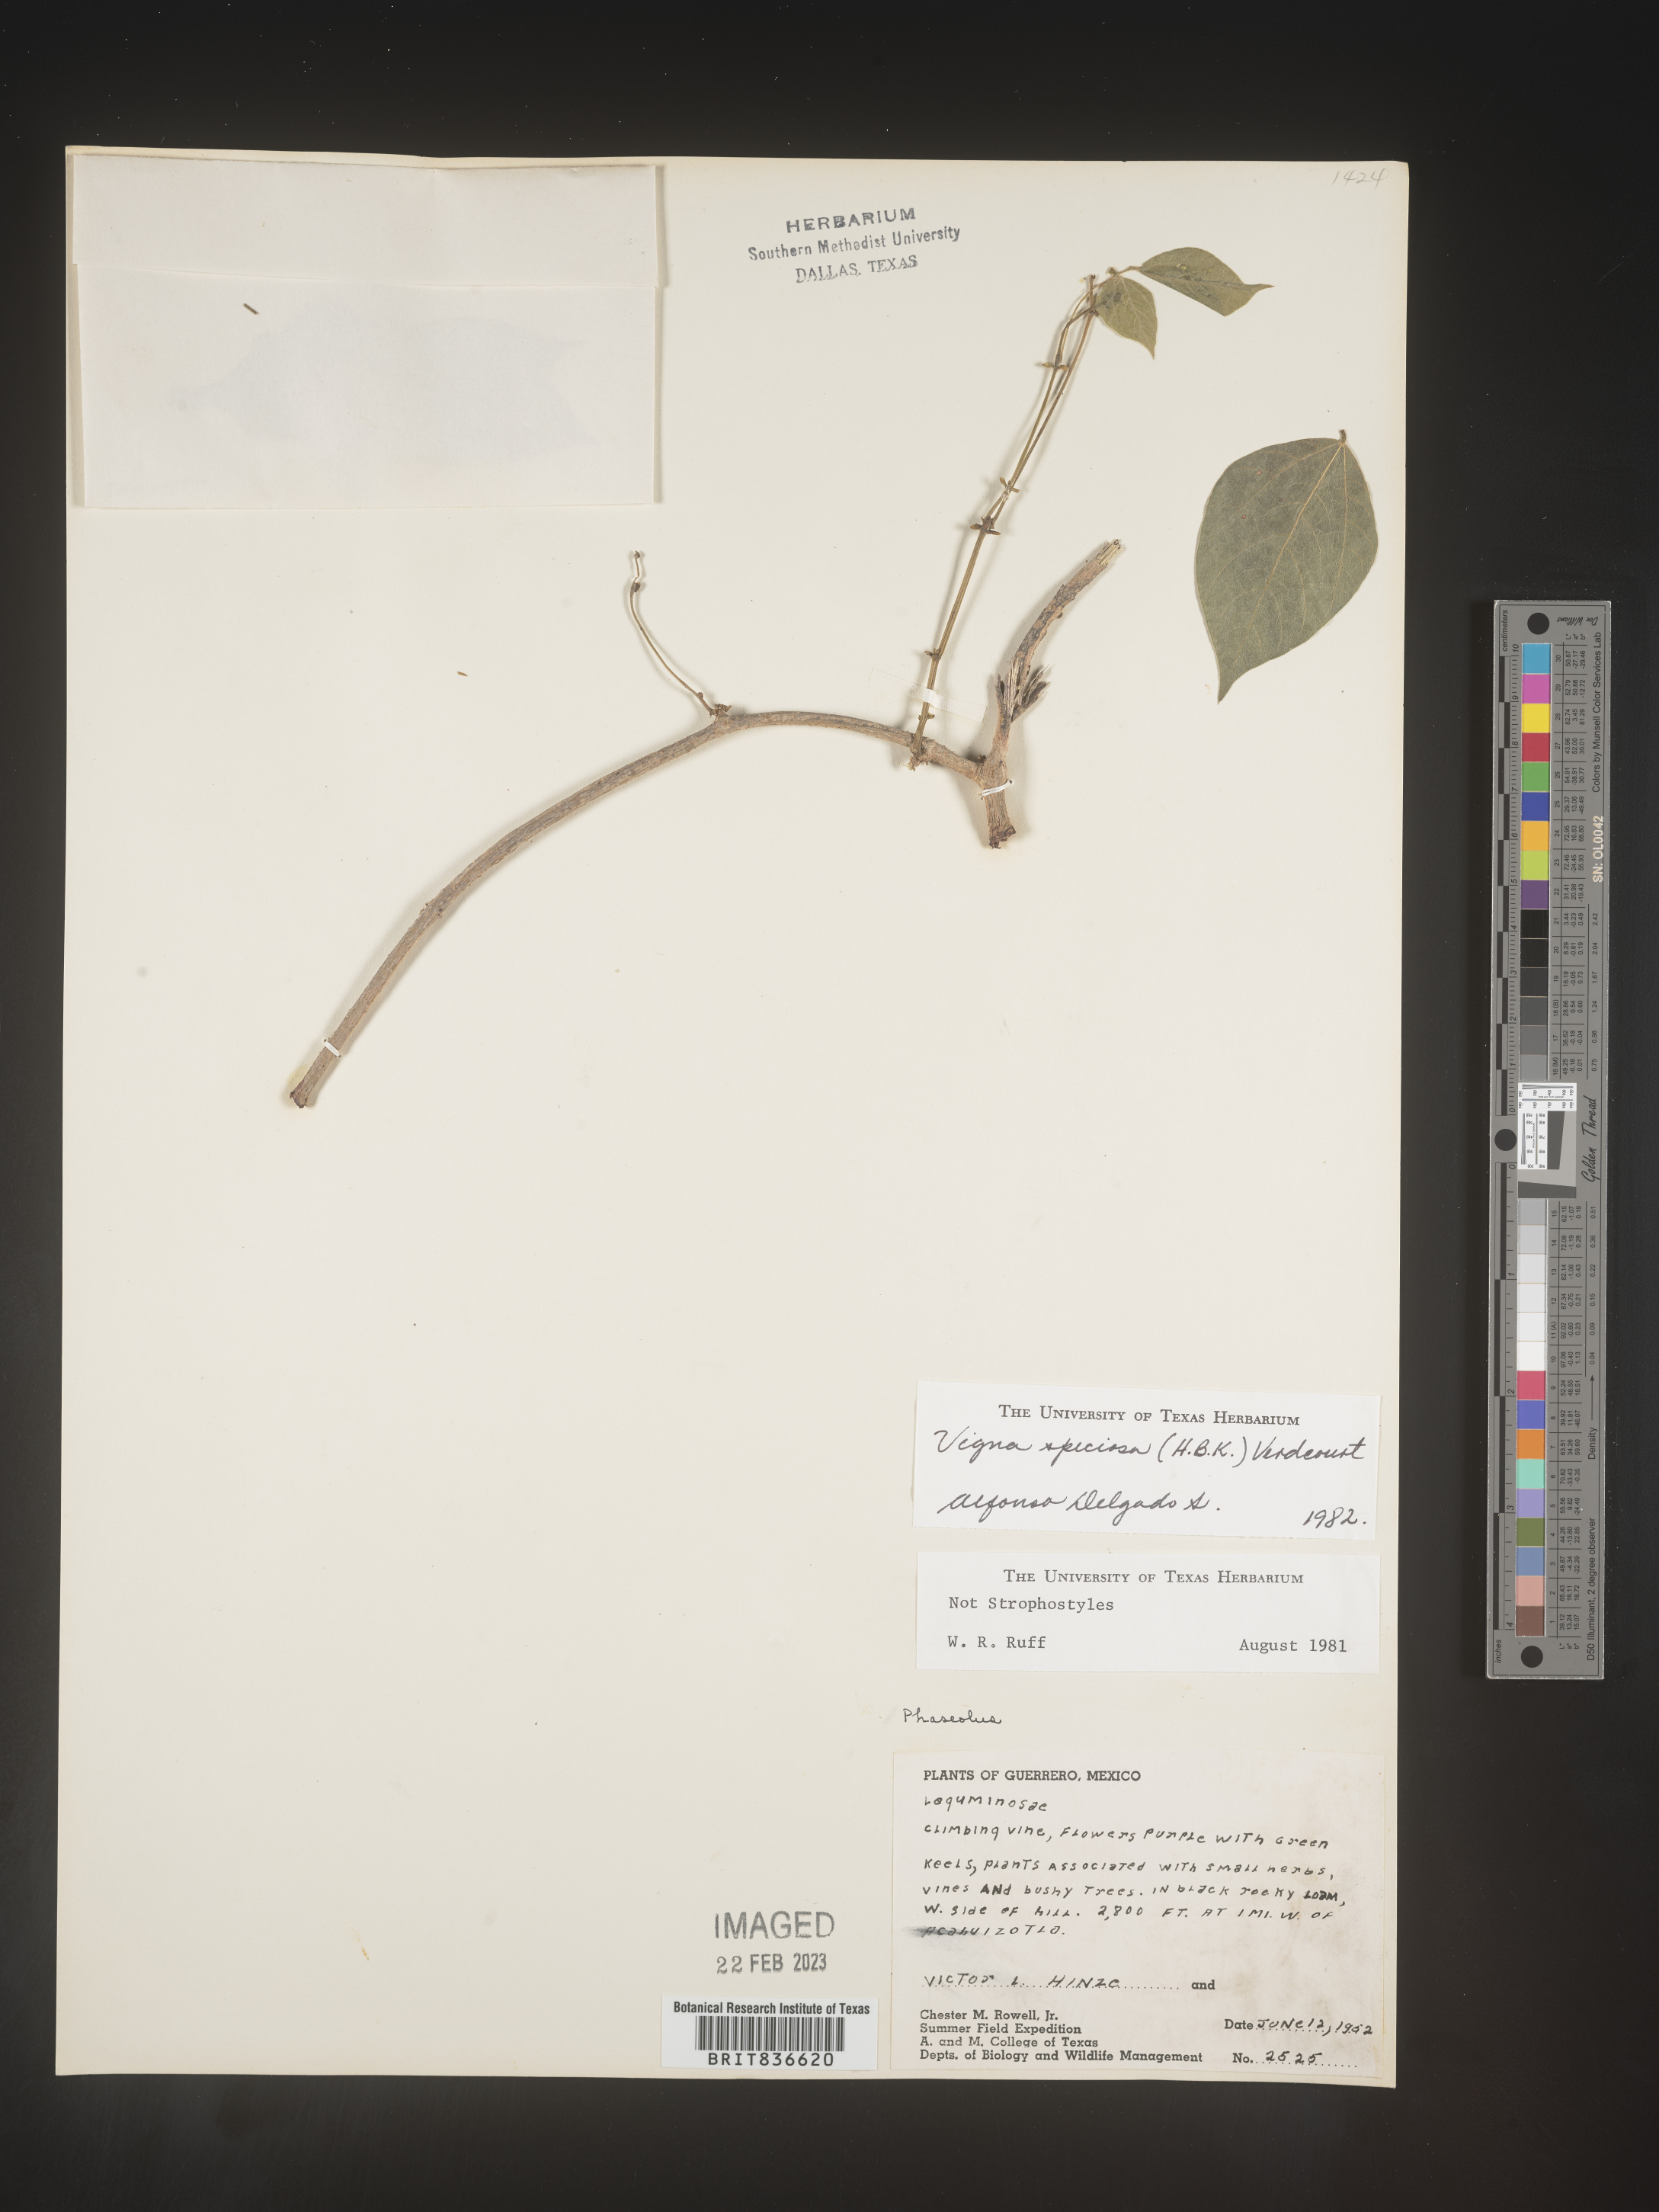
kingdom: Plantae
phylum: Tracheophyta
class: Magnoliopsida
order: Fabales
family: Fabaceae
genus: Vigna
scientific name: Vigna
